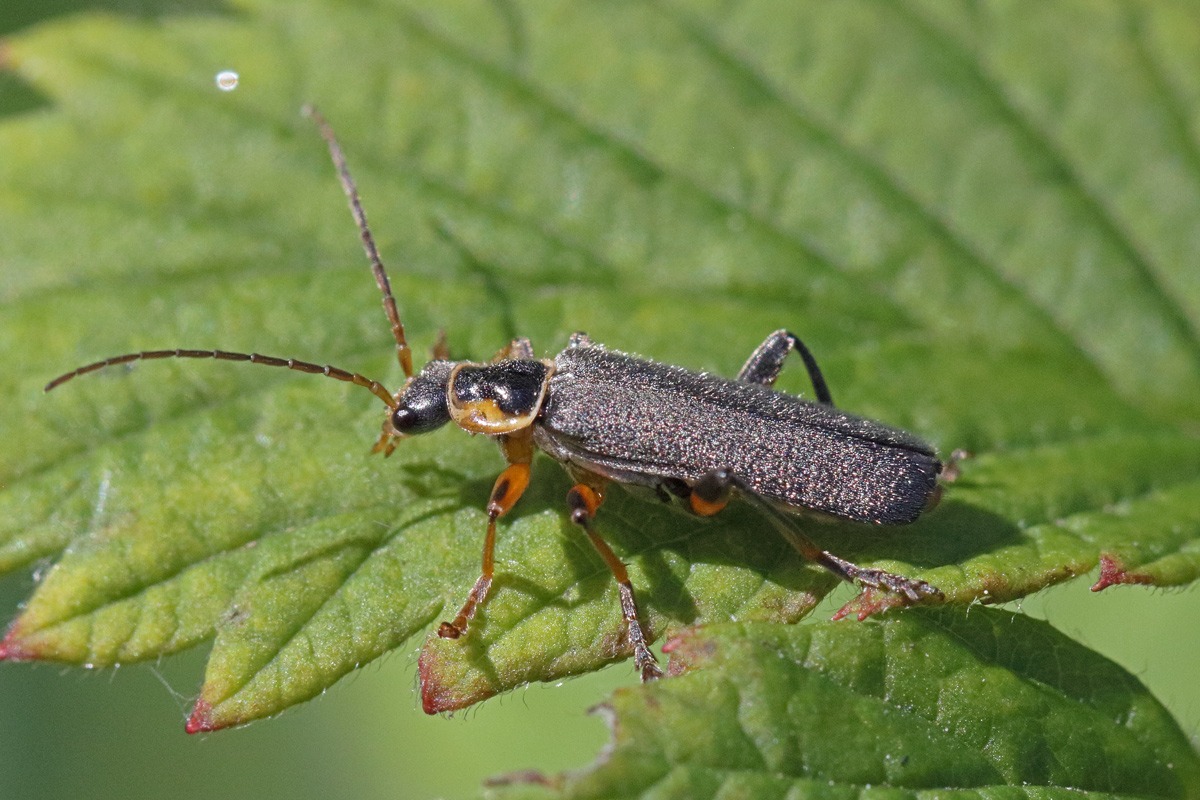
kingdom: Animalia
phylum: Arthropoda
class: Insecta
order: Coleoptera
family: Cantharidae
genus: Cantharis
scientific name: Cantharis nigricans
